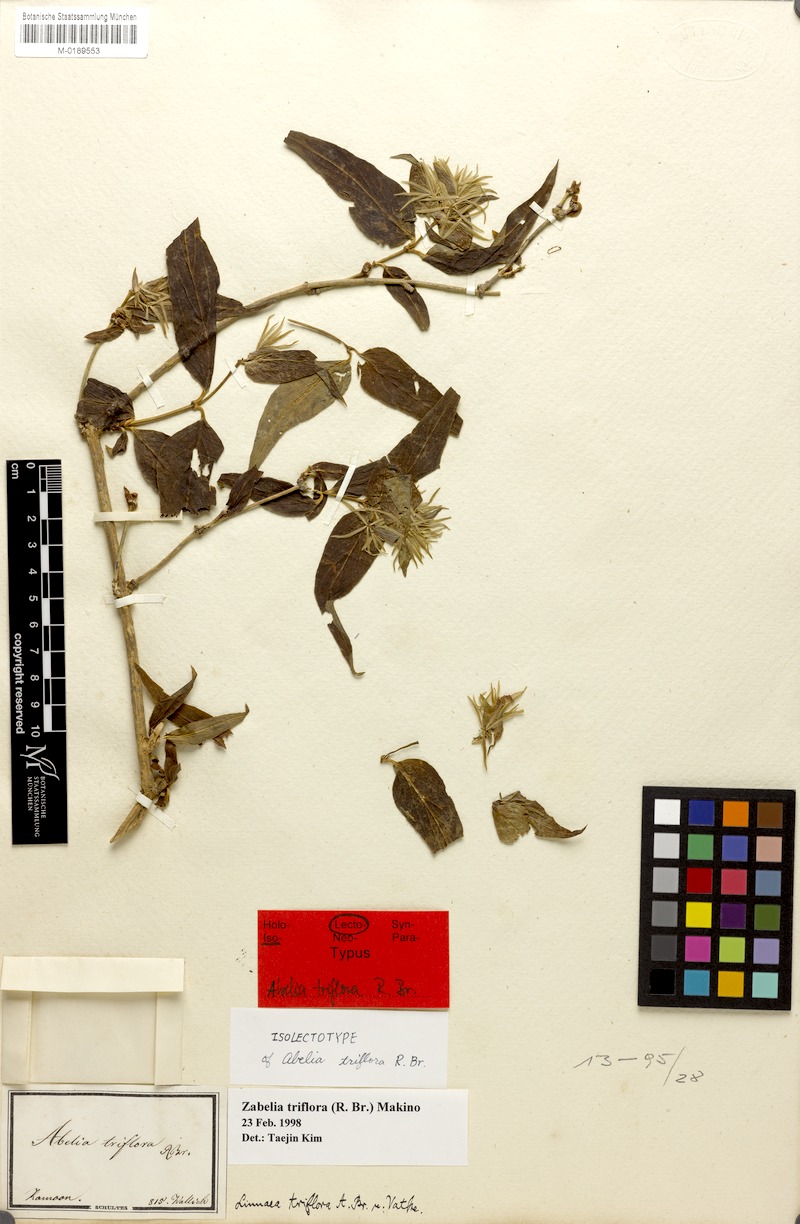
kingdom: Plantae
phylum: Tracheophyta
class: Magnoliopsida
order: Dipsacales
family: Caprifoliaceae
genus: Zabelia
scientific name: Zabelia triflora
